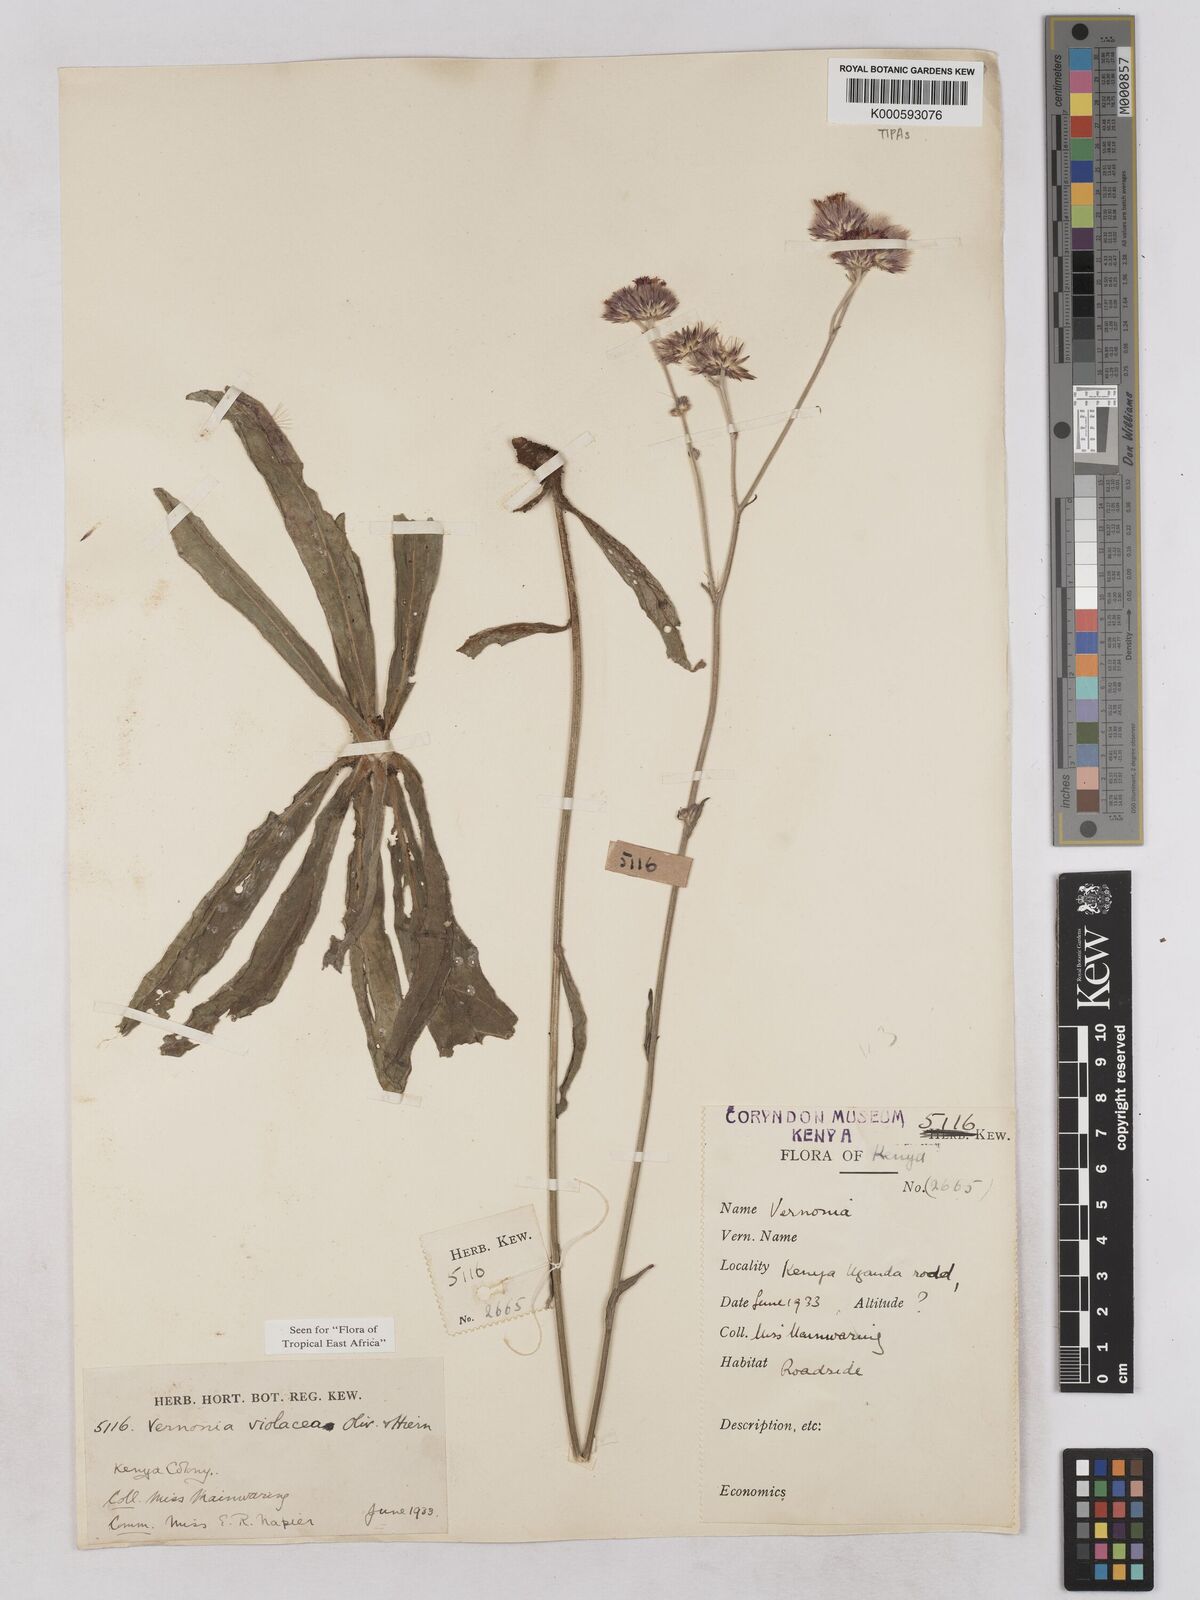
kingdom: Plantae
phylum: Tracheophyta
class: Magnoliopsida
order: Asterales
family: Asteraceae
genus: Vernonia
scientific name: Vernonia violacea
